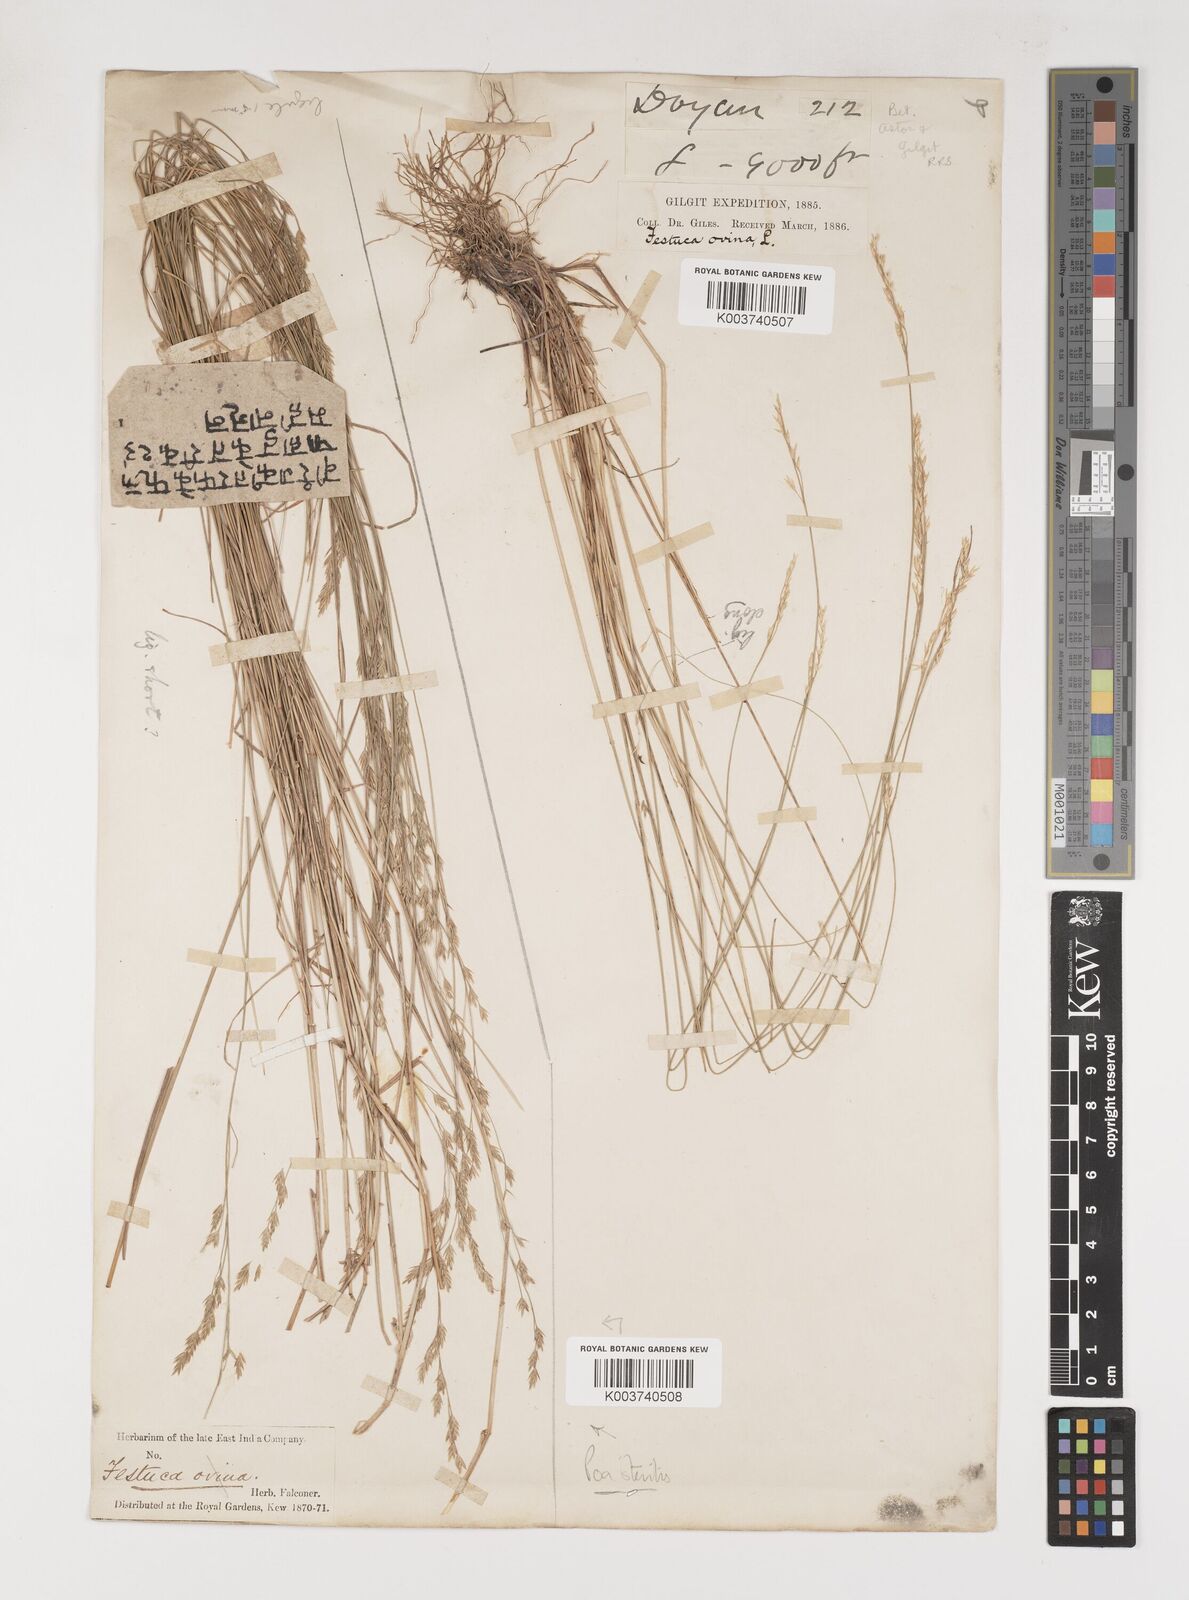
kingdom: Plantae
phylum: Tracheophyta
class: Liliopsida
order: Poales
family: Poaceae
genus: Poa
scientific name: Poa sterilis
